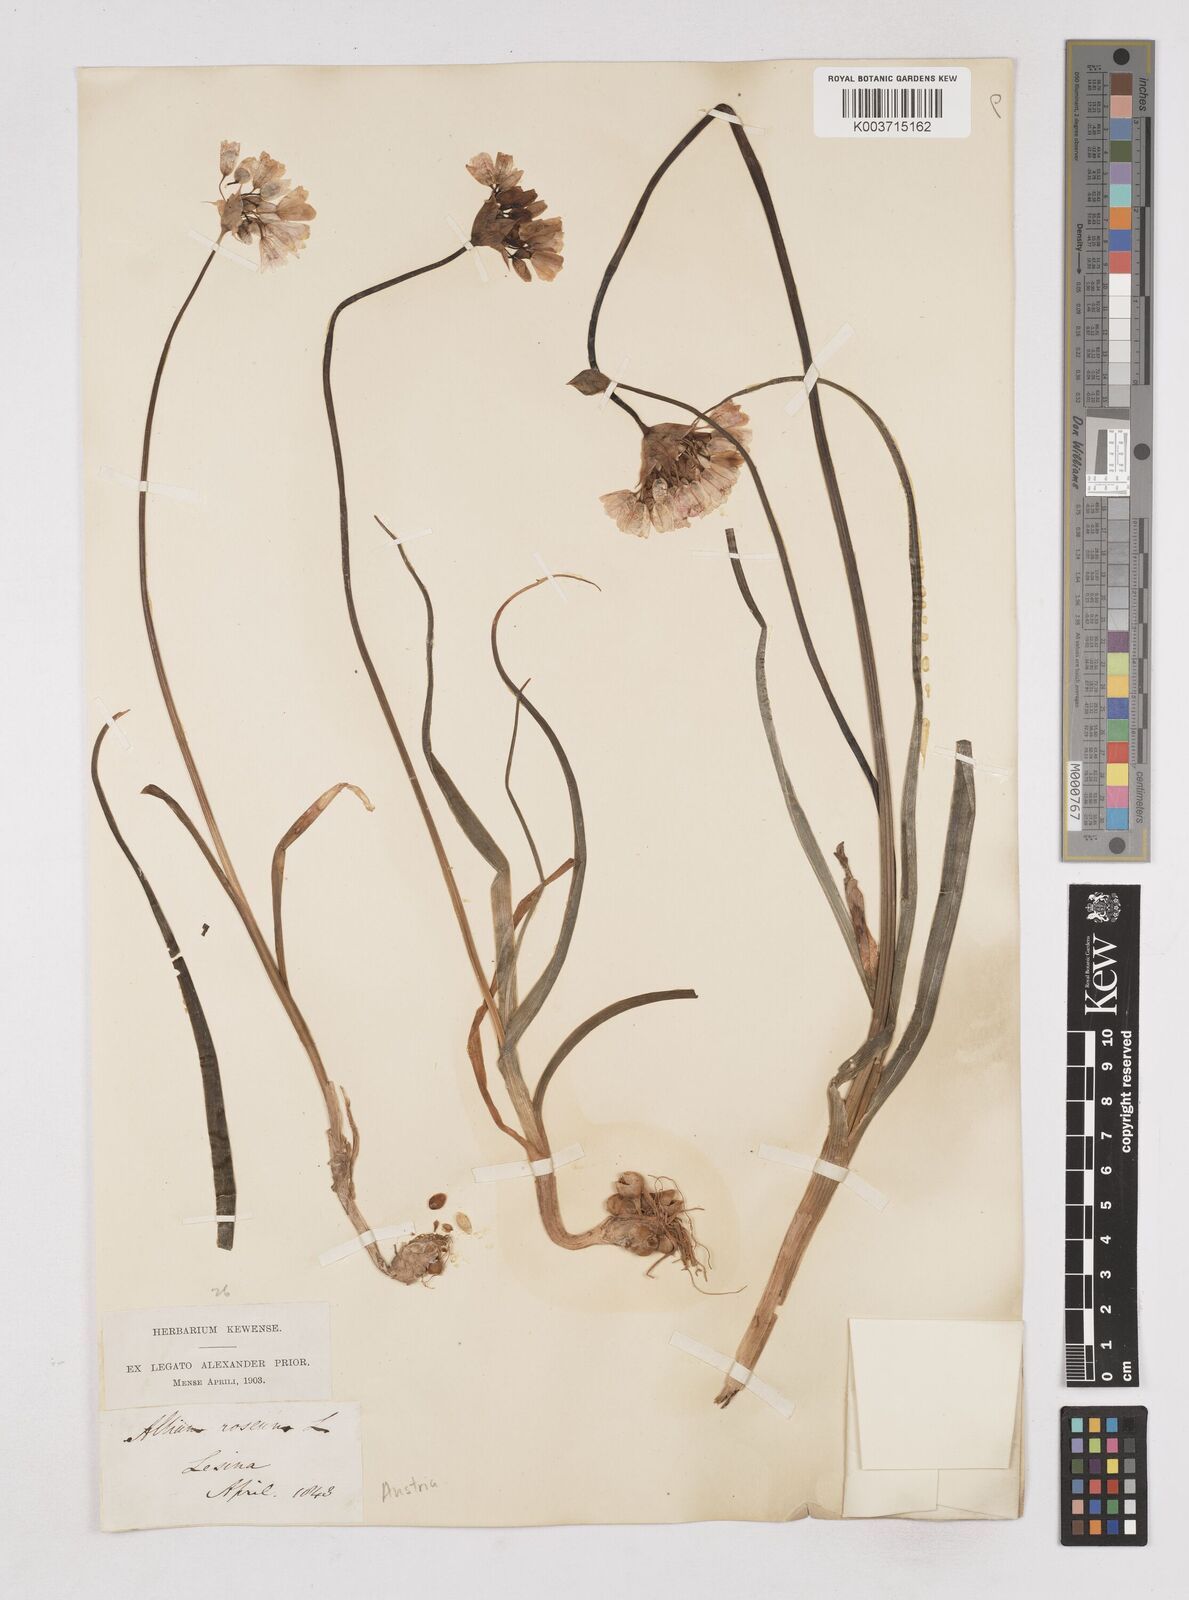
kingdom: Plantae
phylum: Tracheophyta
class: Liliopsida
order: Asparagales
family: Amaryllidaceae
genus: Allium
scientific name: Allium roseum
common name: Rosy garlic
